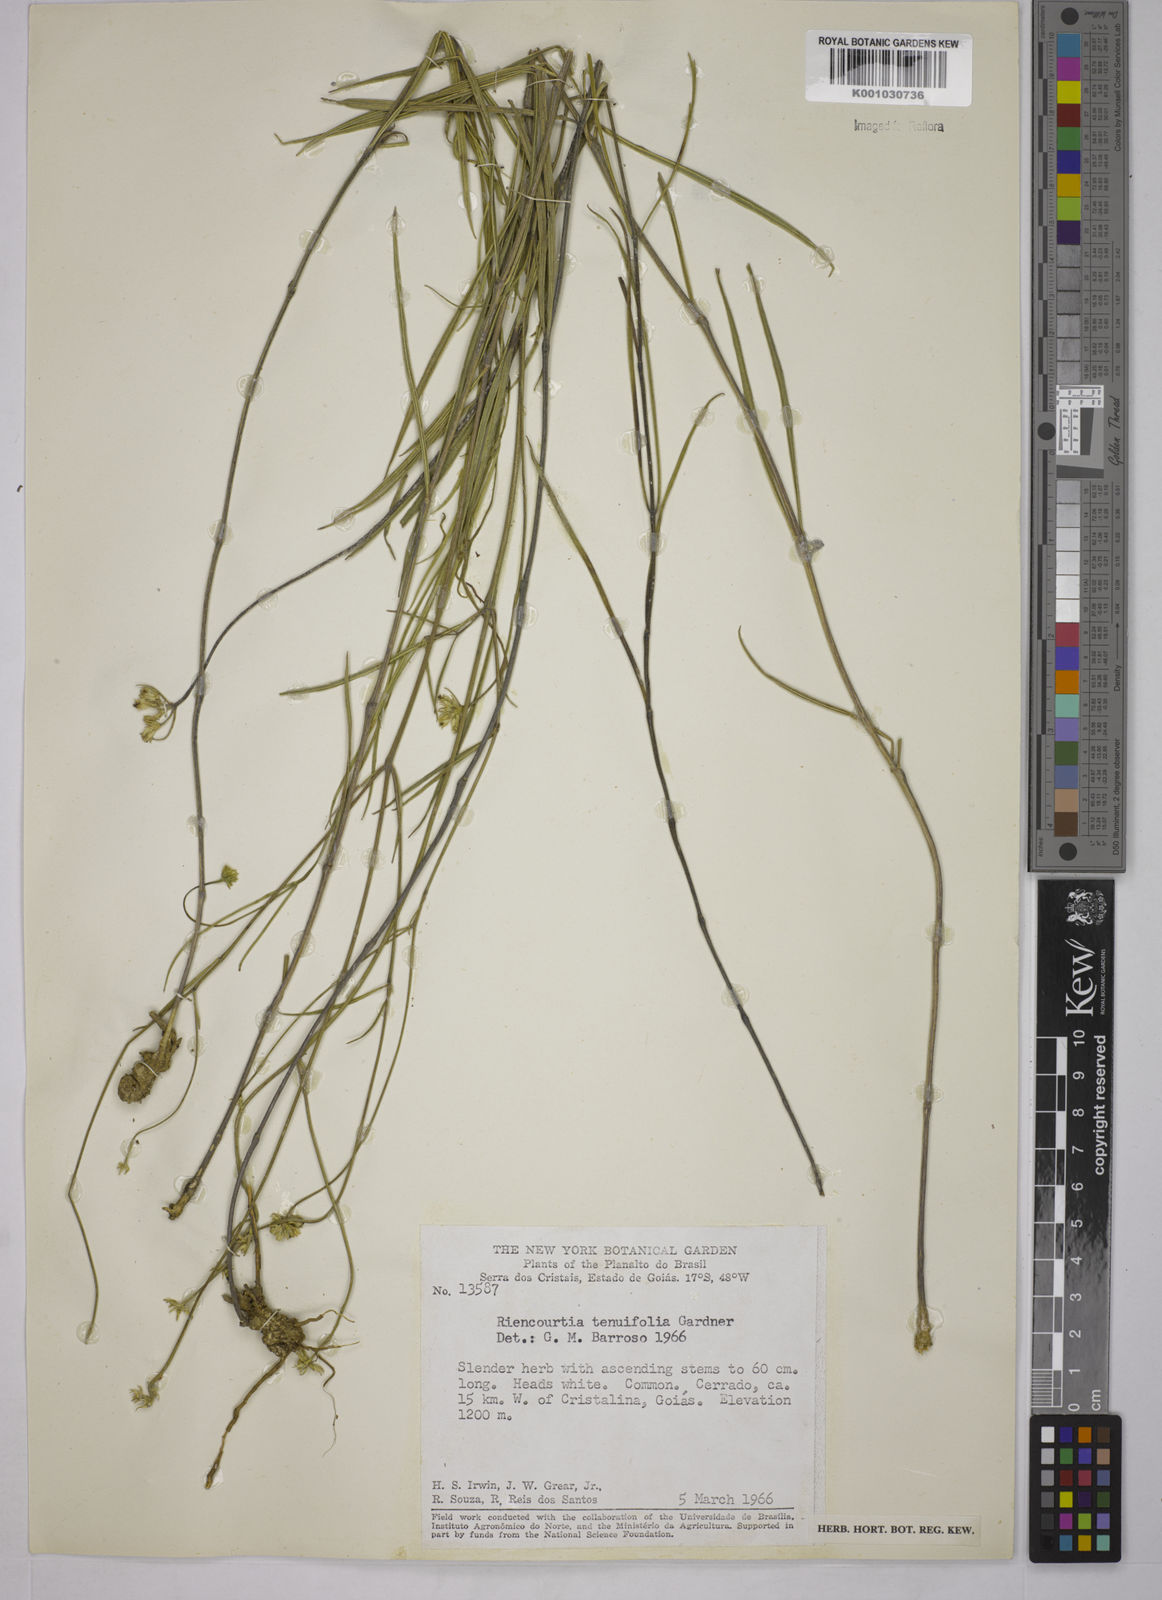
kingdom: Plantae
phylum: Tracheophyta
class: Magnoliopsida
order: Asterales
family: Asteraceae
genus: Riencourtia
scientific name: Riencourtia tenuifolia
